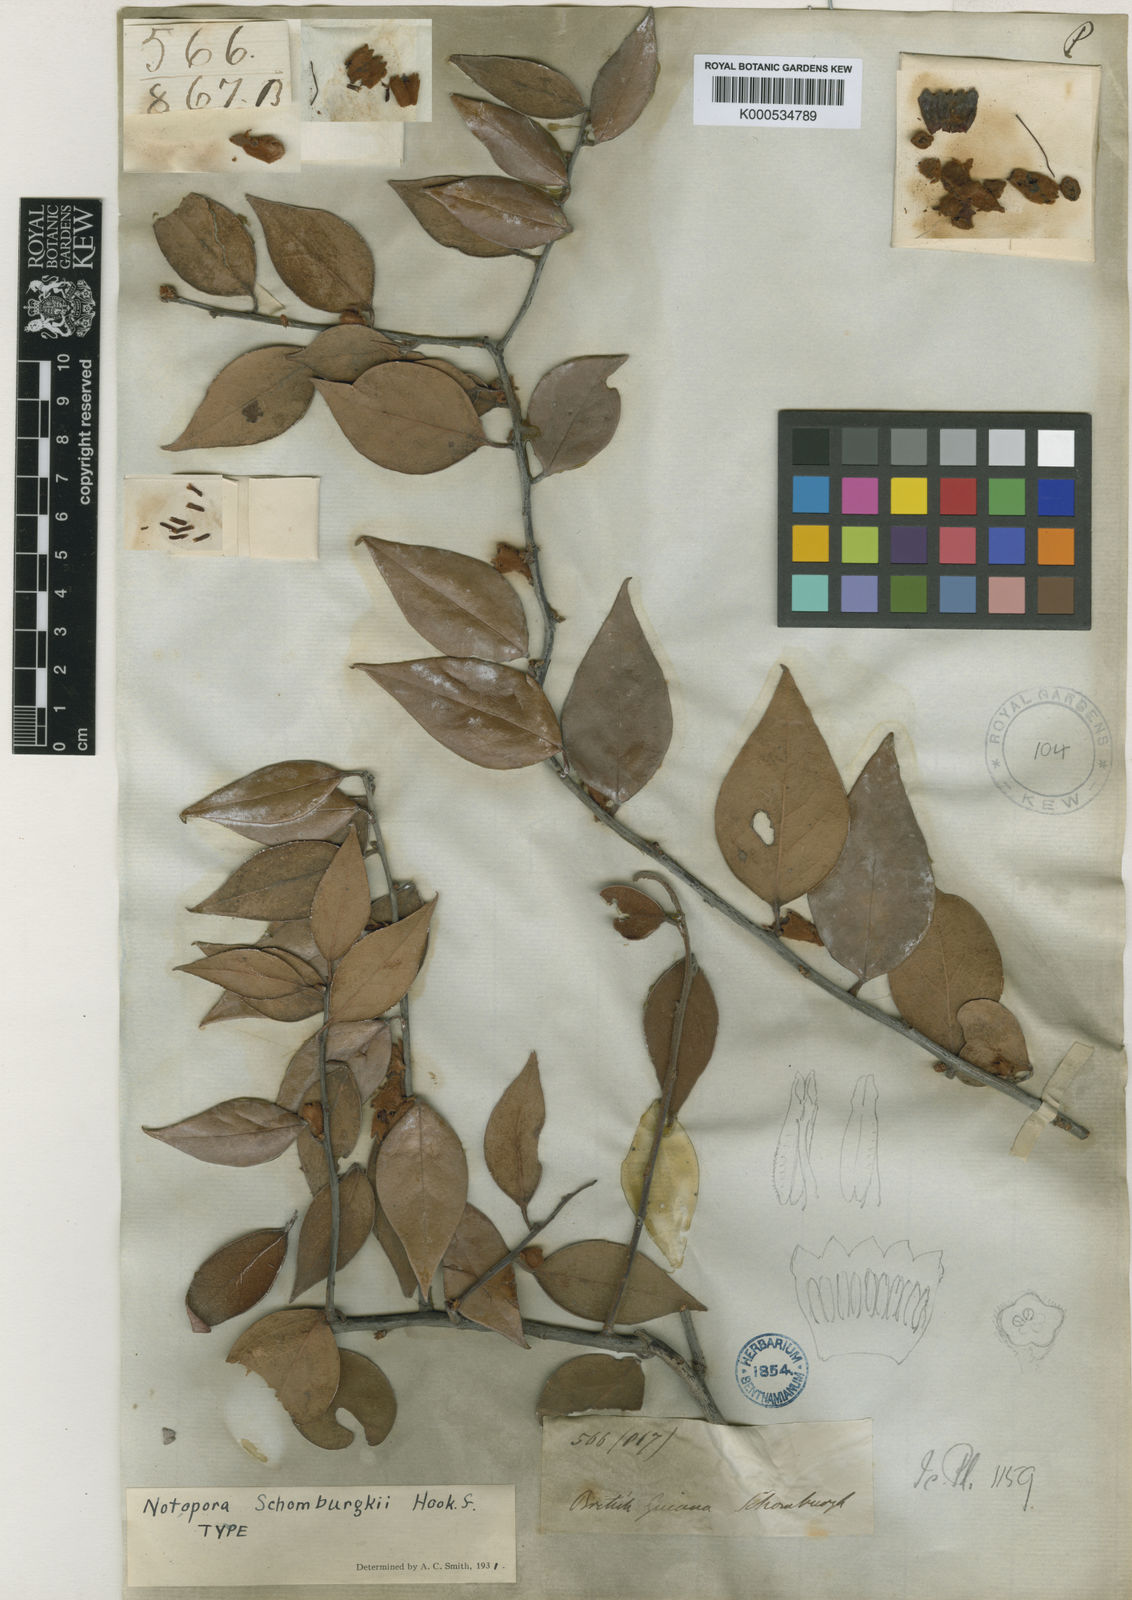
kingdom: Plantae
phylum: Tracheophyta
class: Magnoliopsida
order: Ericales
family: Ericaceae
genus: Notopora
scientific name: Notopora schomburgkii
